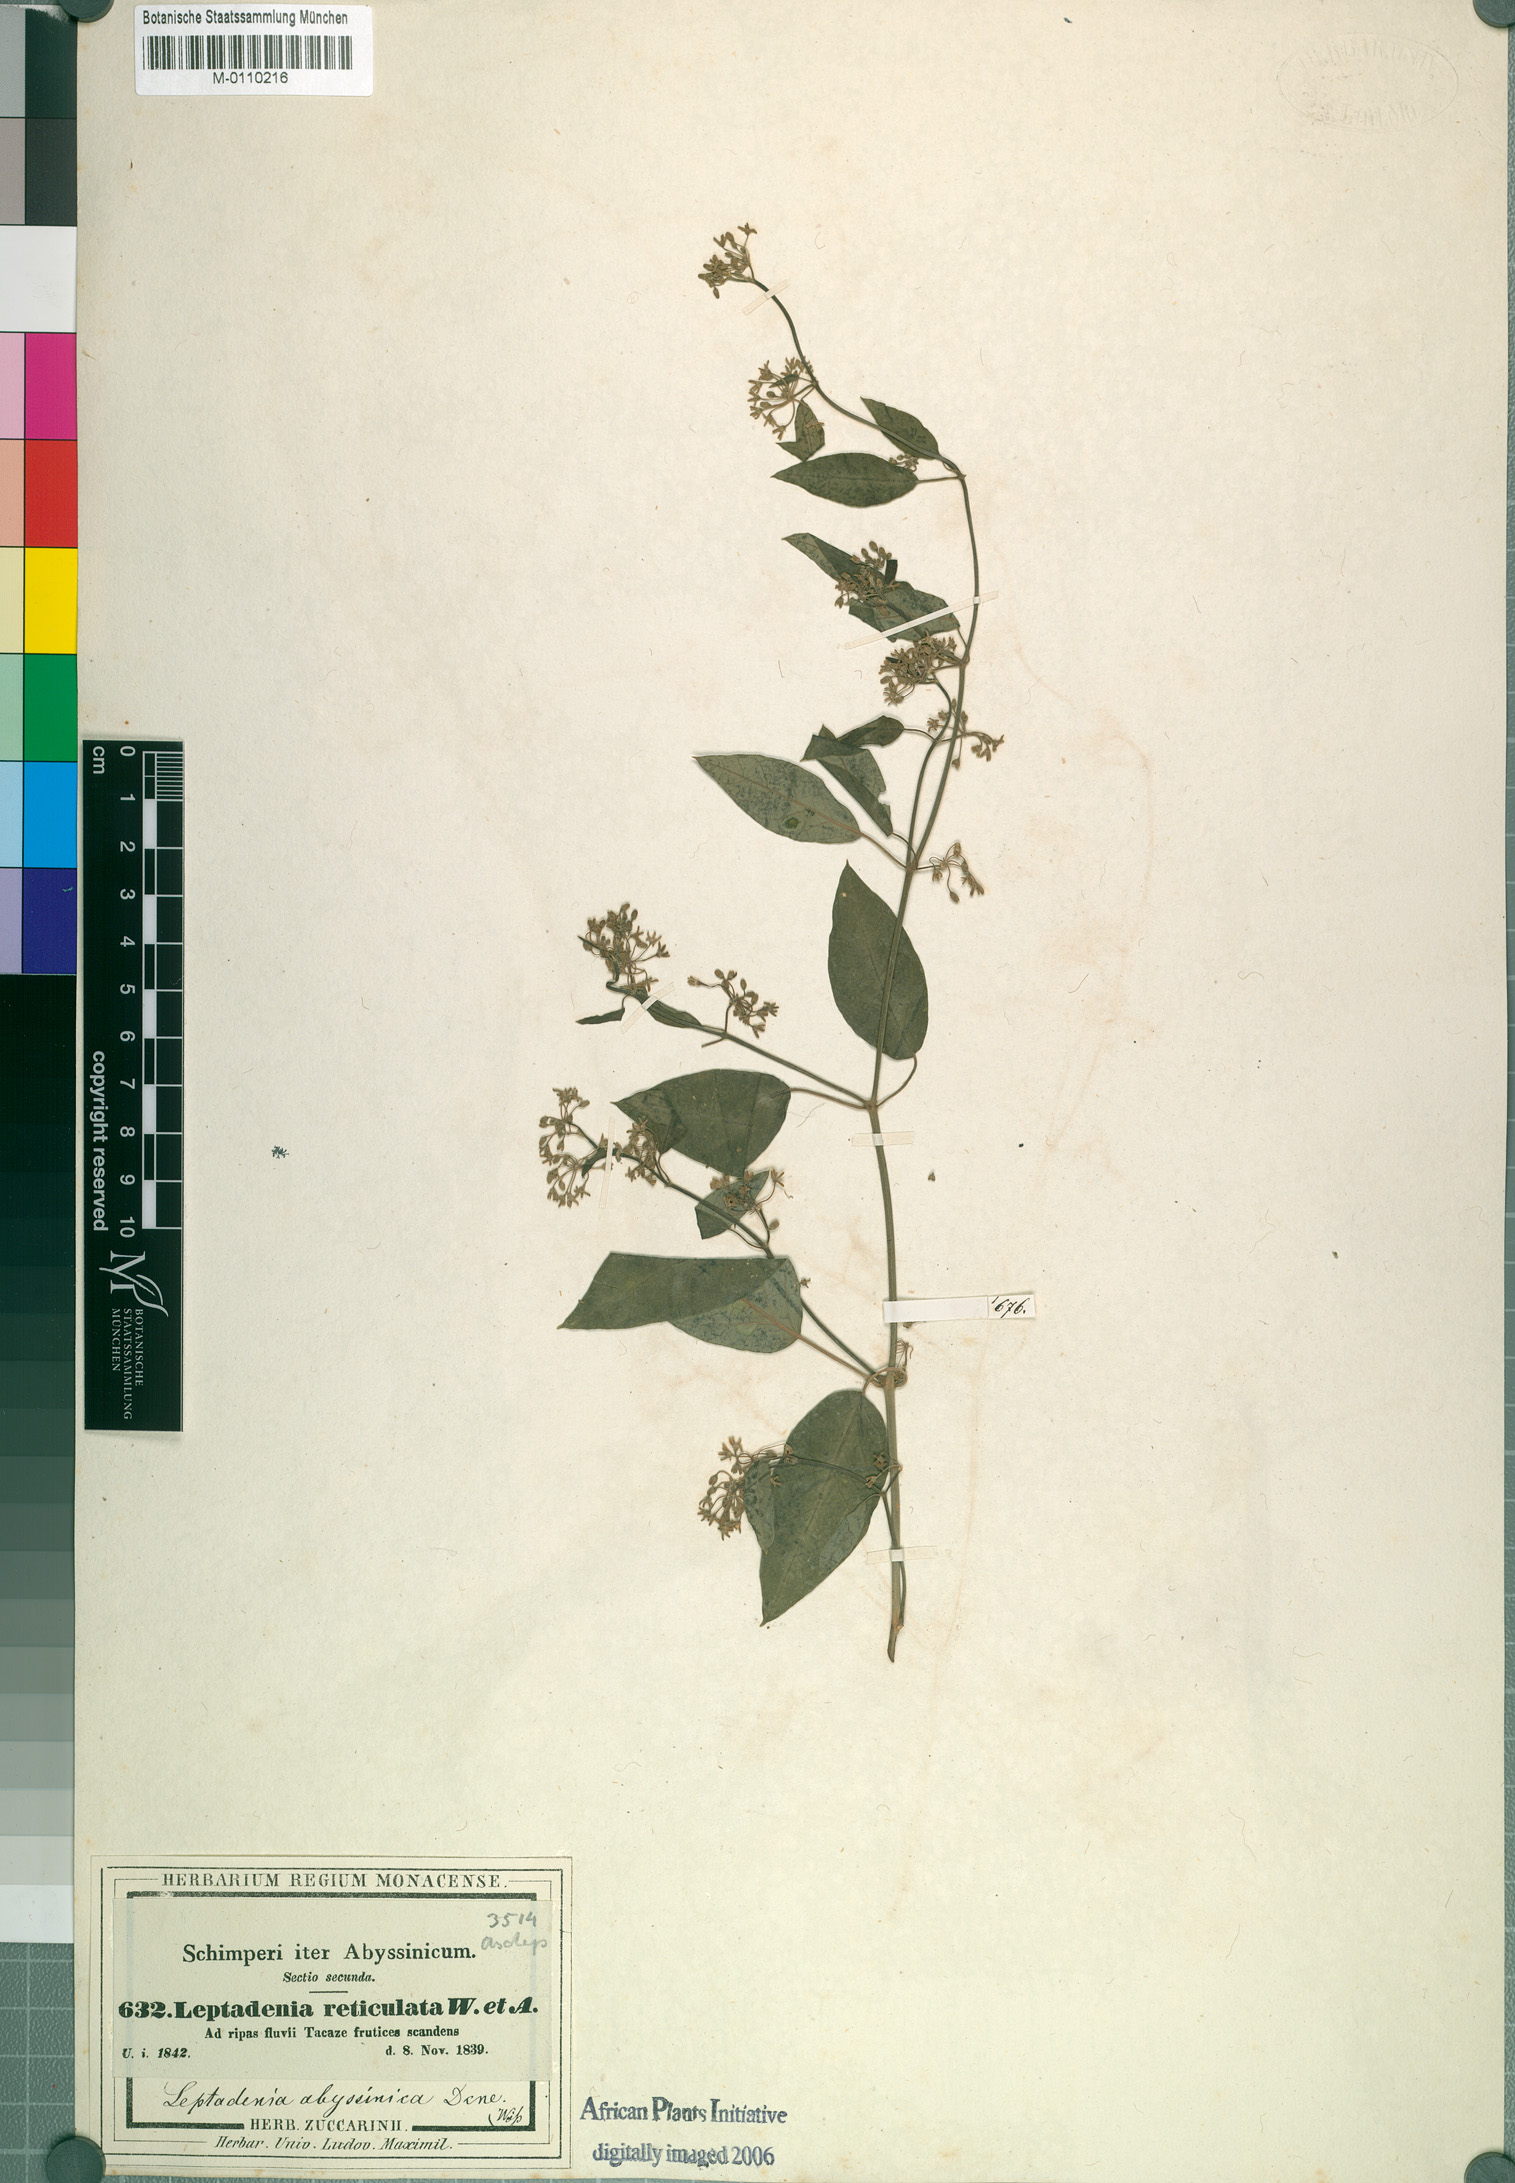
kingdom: Plantae
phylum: Tracheophyta
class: Magnoliopsida
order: Gentianales
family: Apocynaceae
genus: Leptadenia
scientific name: Leptadenia arborea
